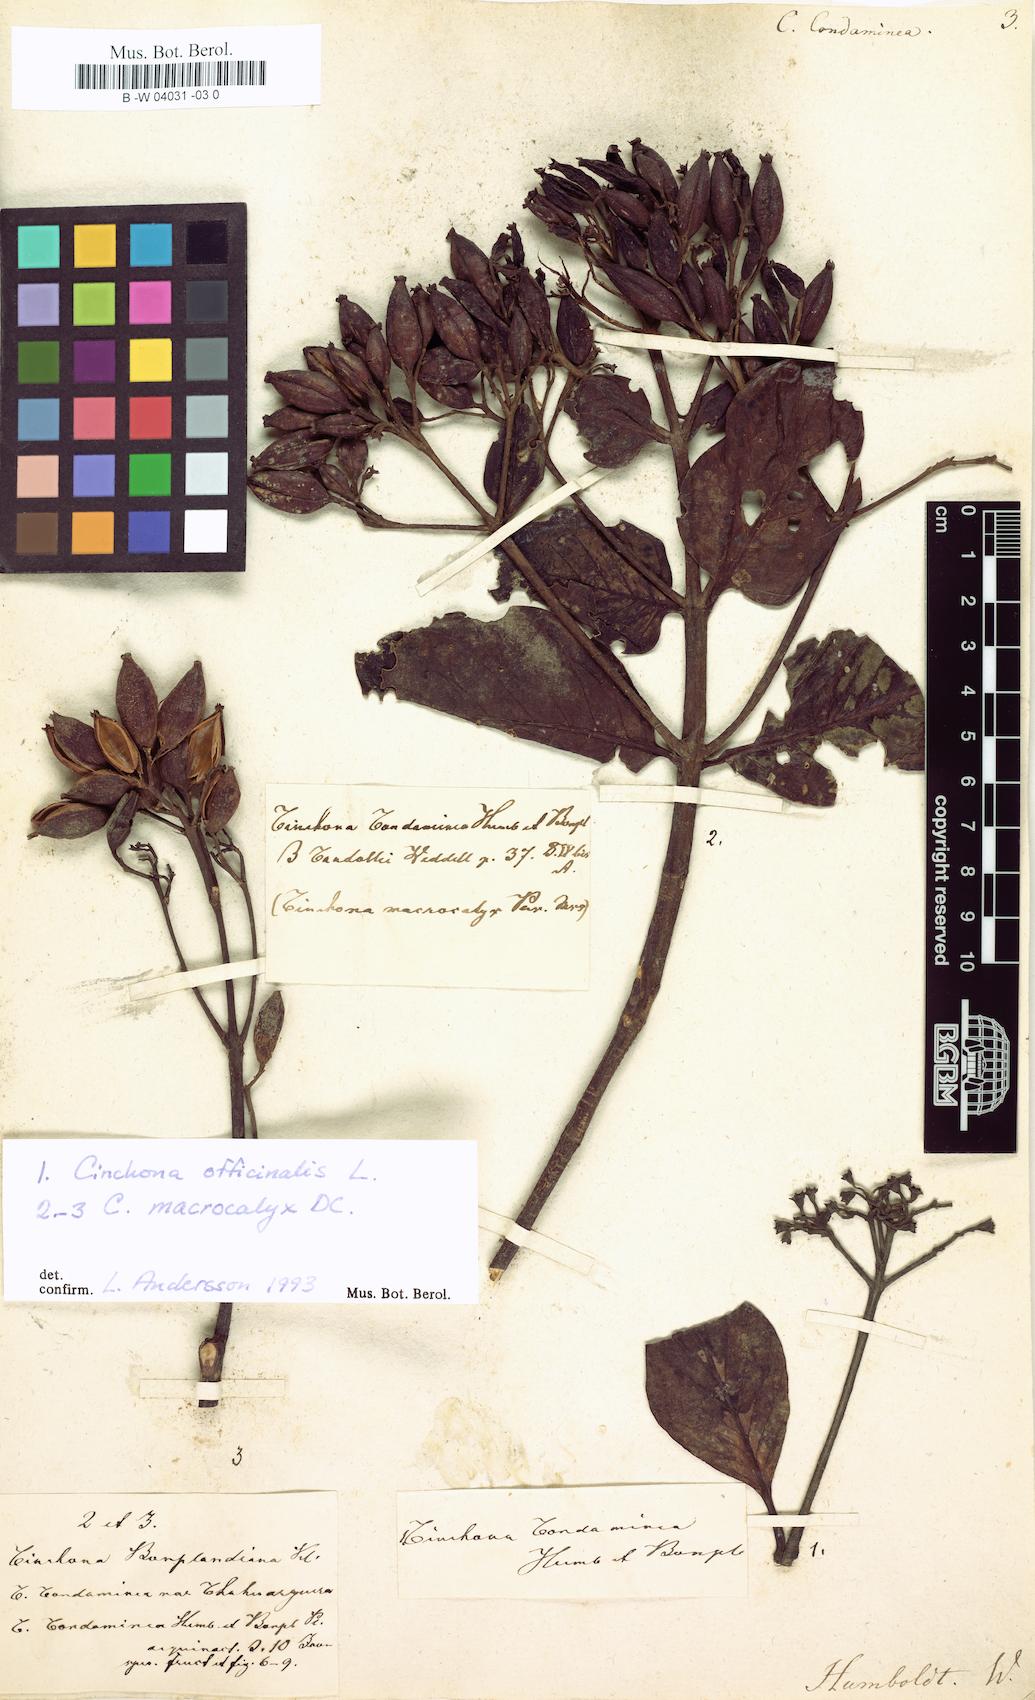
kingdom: Plantae
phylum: Tracheophyta
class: Magnoliopsida
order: Gentianales
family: Rubiaceae
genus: Cinchona
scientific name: Cinchona officinalis
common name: Lojabark
